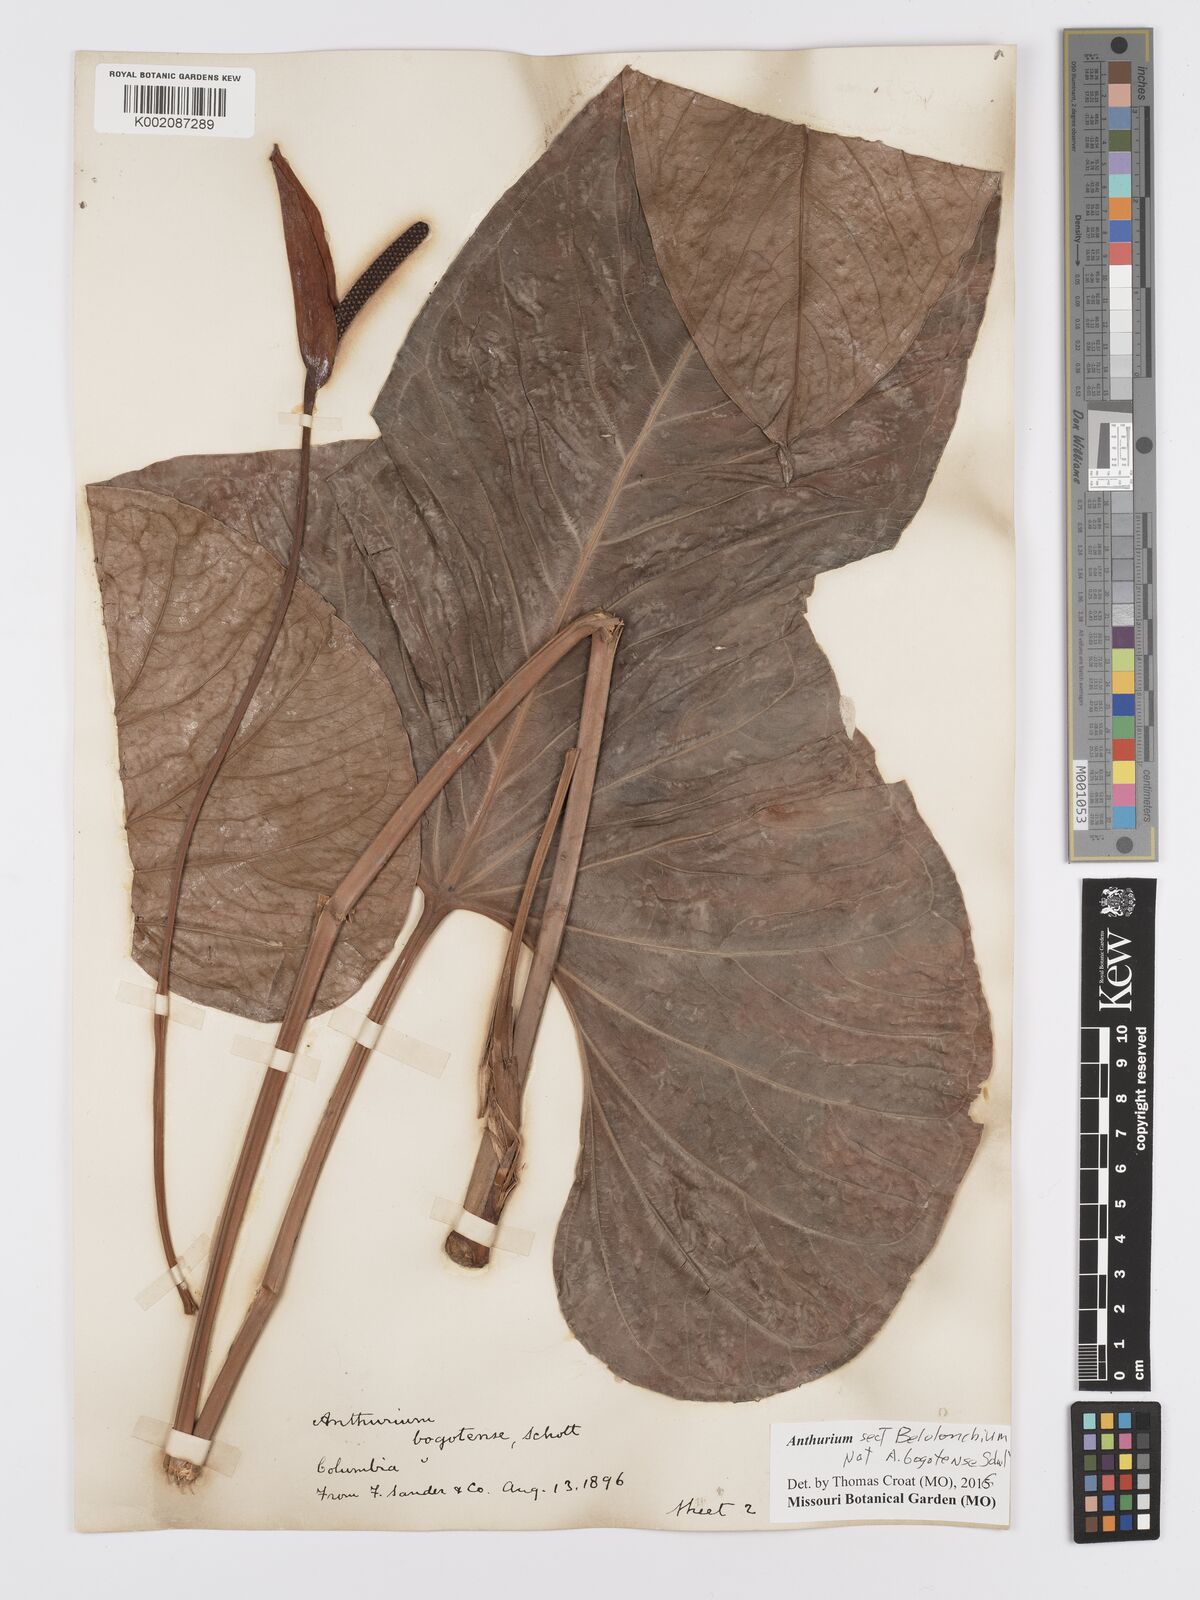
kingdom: Plantae
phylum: Tracheophyta
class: Liliopsida
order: Alismatales
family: Araceae
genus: Anthurium
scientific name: Anthurium
